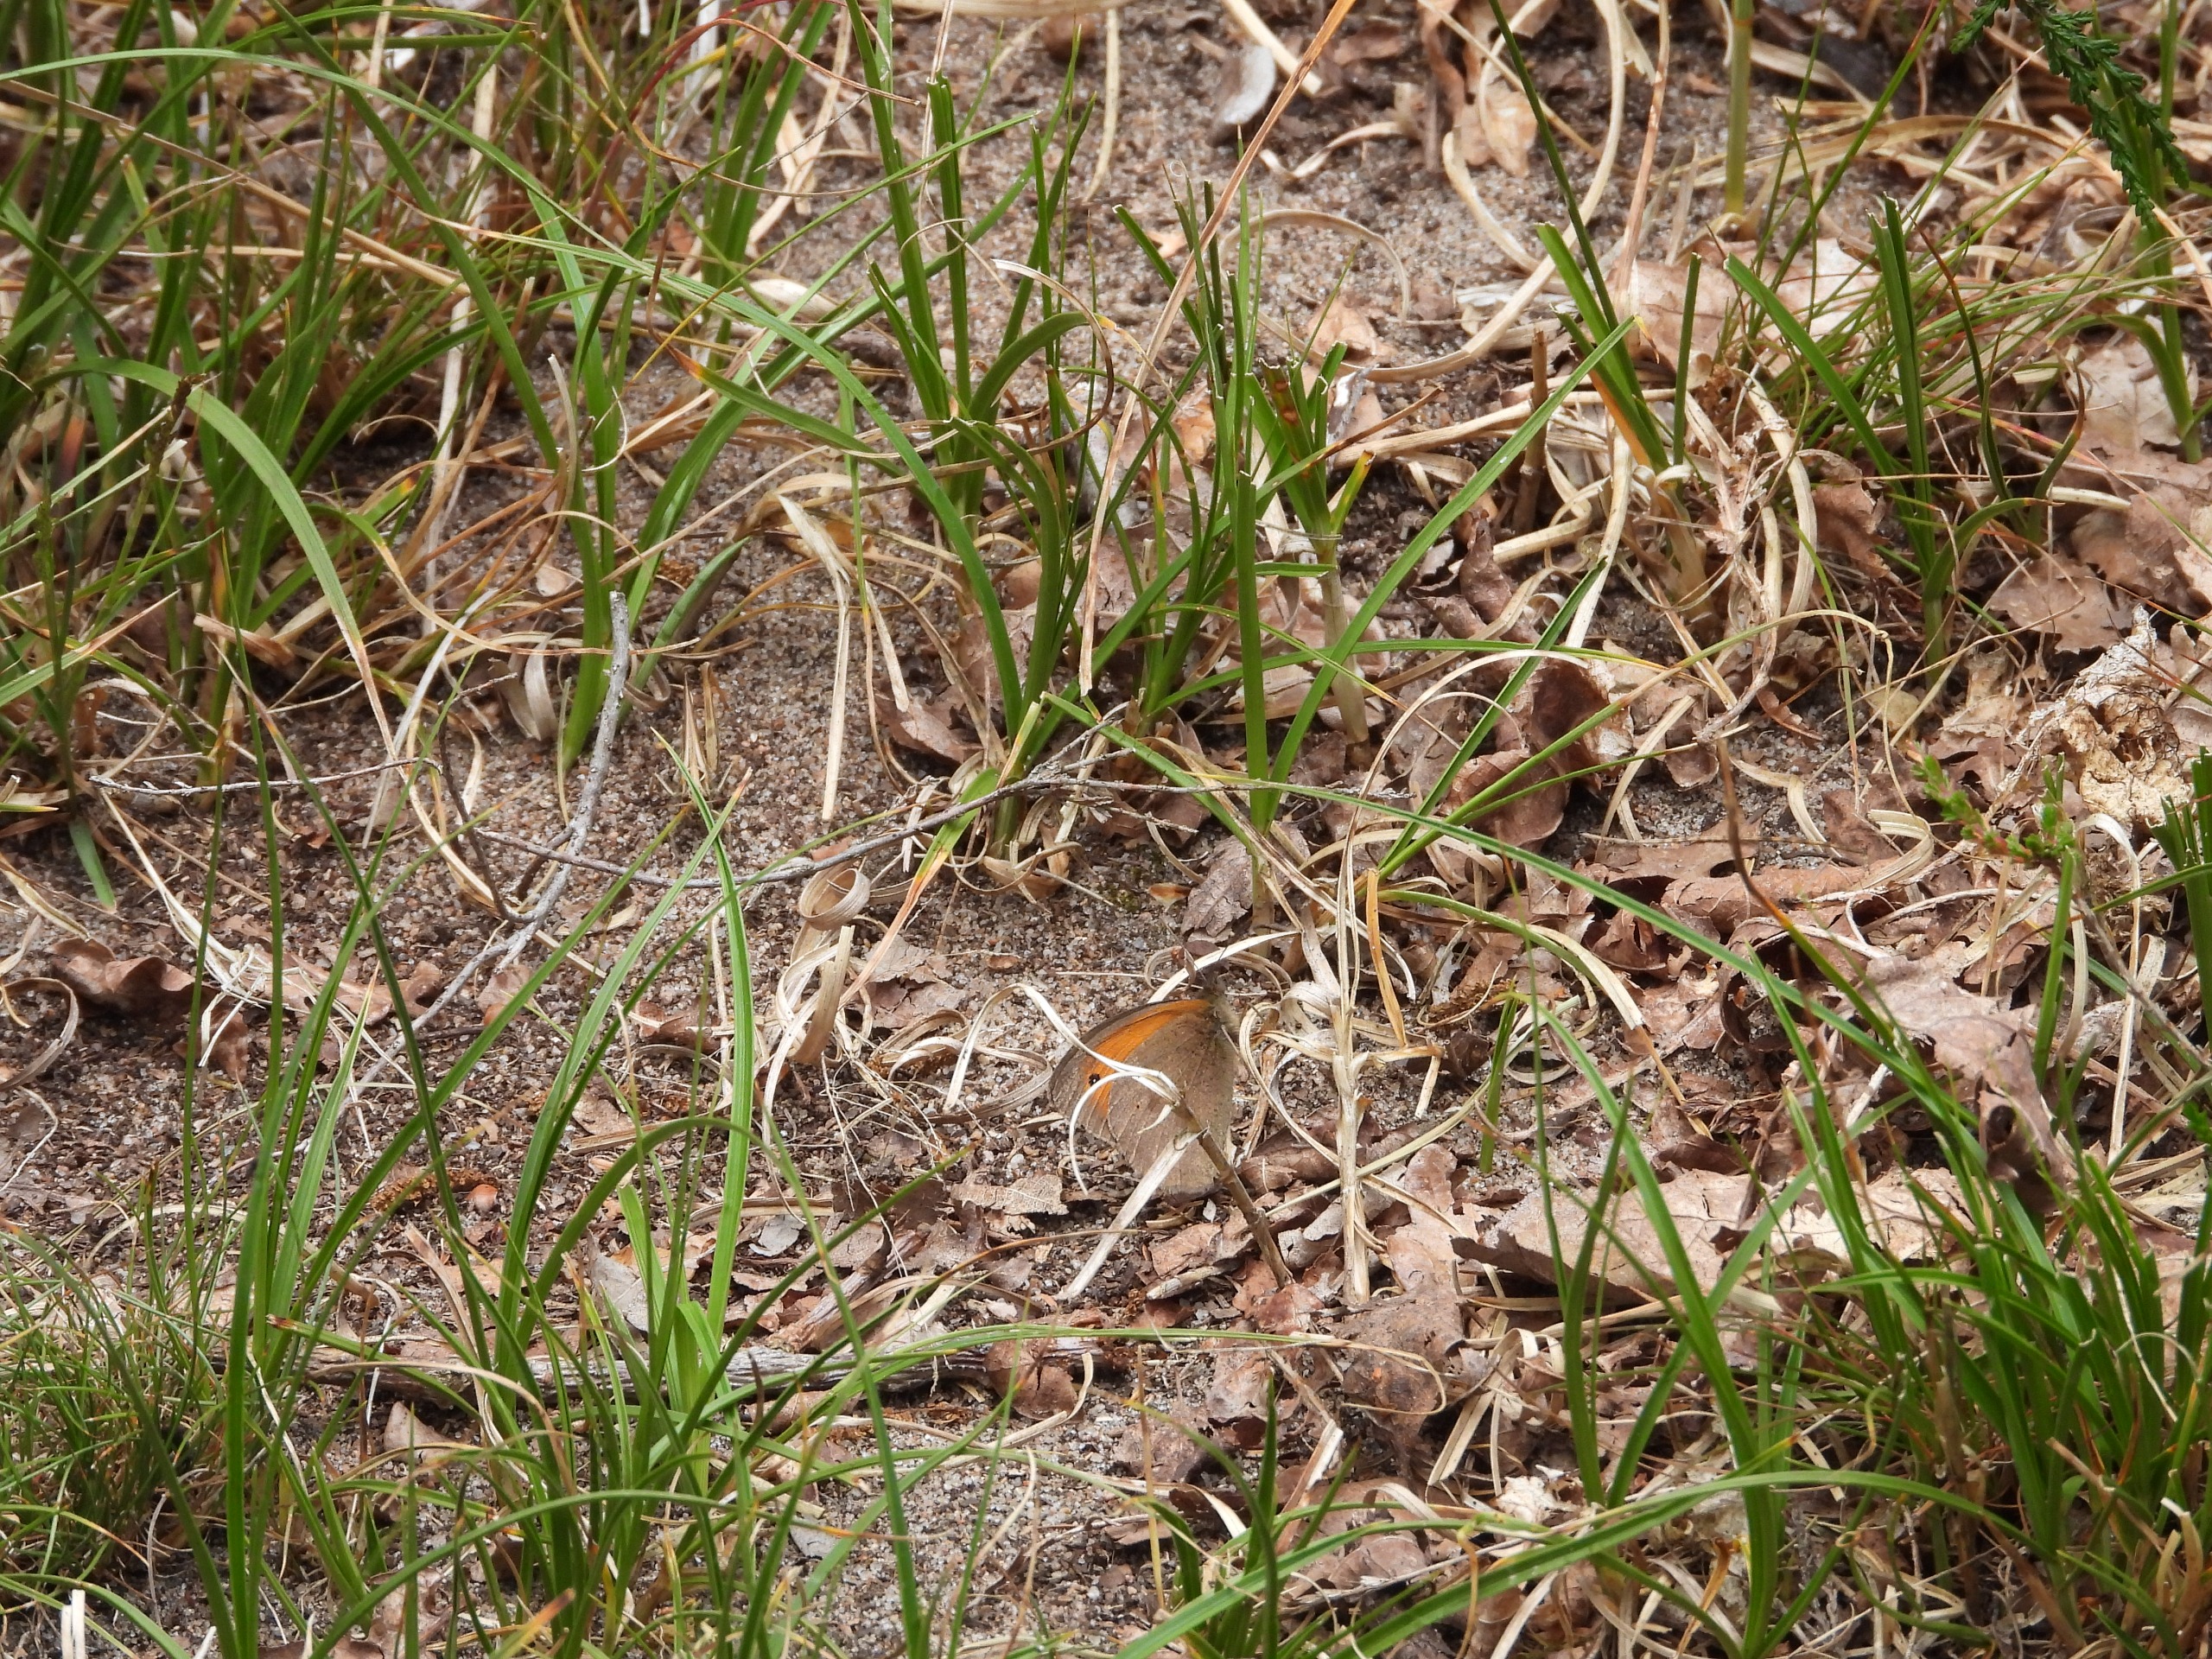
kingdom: Animalia
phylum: Arthropoda
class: Insecta
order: Lepidoptera
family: Nymphalidae
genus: Maniola
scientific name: Maniola jurtina
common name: Græsrandøje
